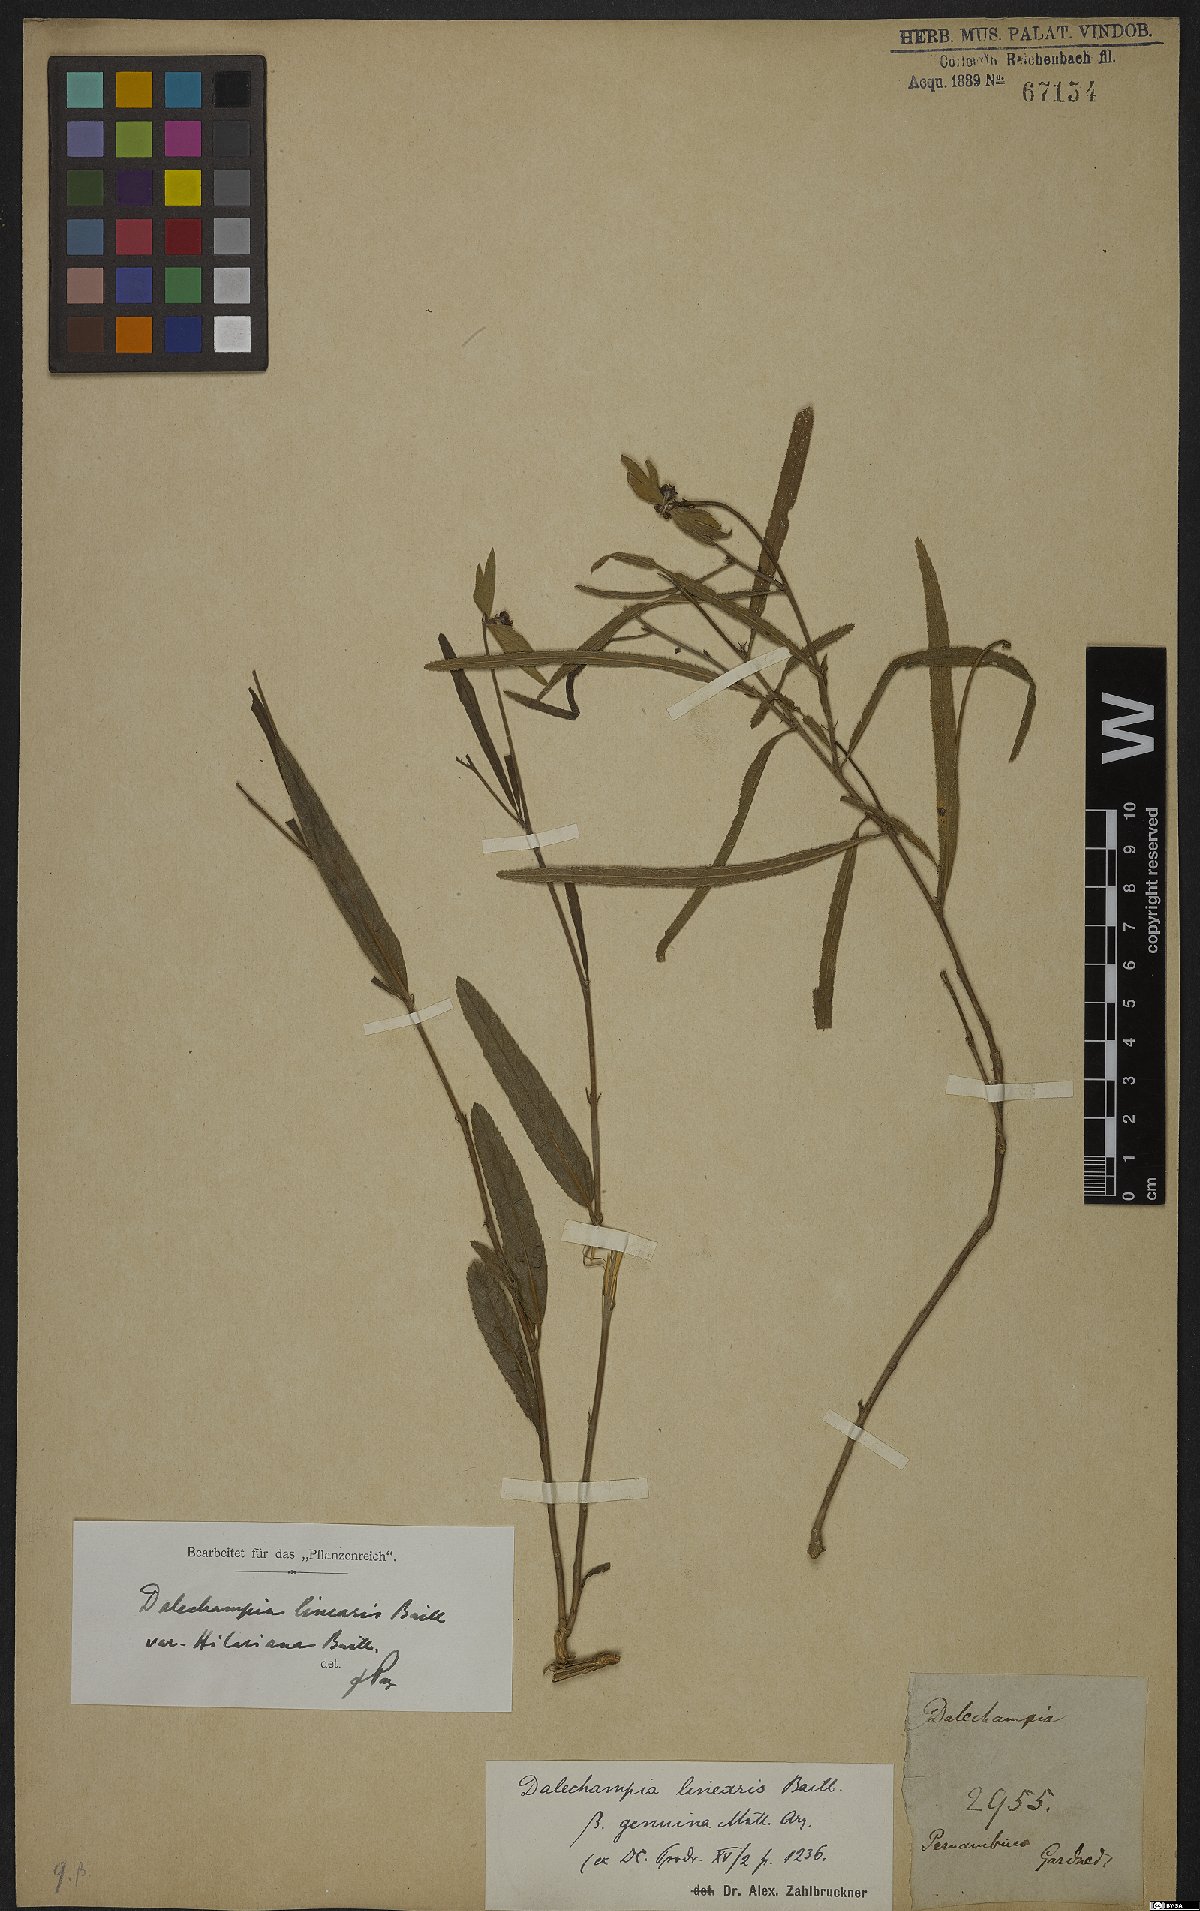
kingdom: Plantae
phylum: Tracheophyta
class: Magnoliopsida
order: Malpighiales
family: Euphorbiaceae
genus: Dalechampia
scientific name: Dalechampia linearis
